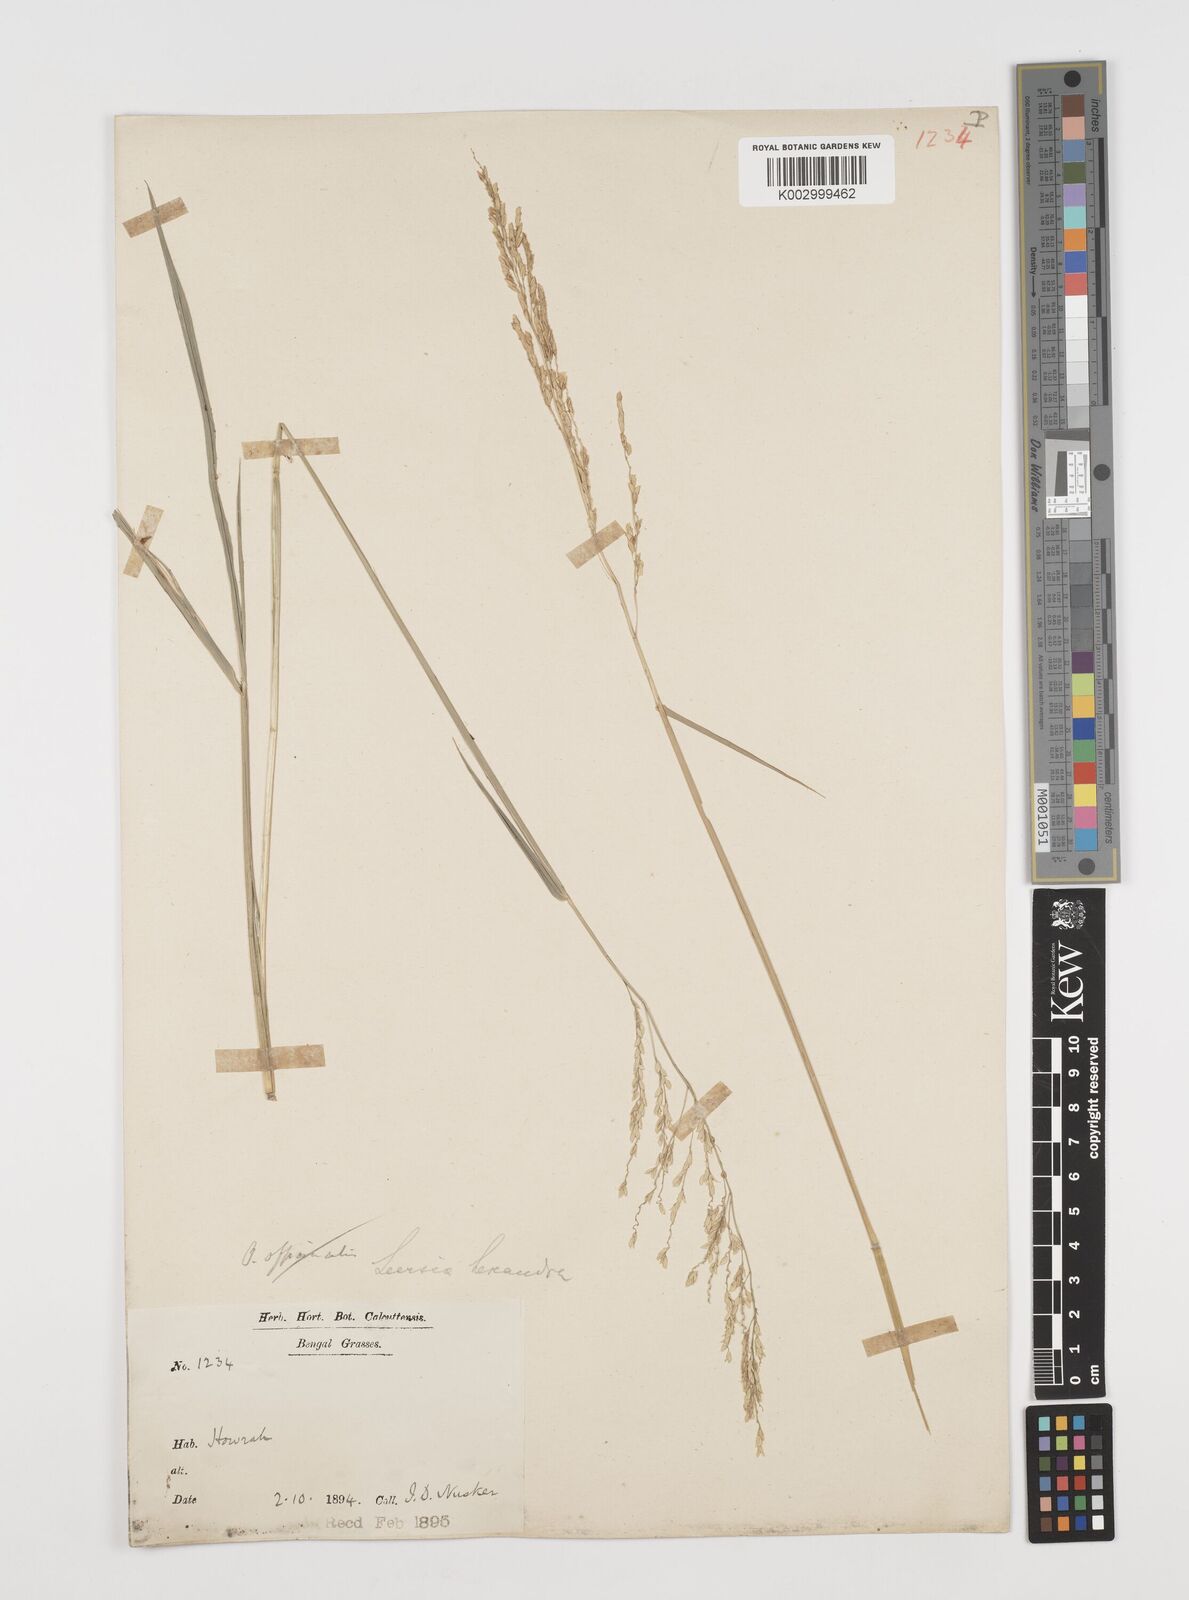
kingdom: Plantae
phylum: Tracheophyta
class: Liliopsida
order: Poales
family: Poaceae
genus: Leersia
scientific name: Leersia hexandra
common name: Southern cut grass
